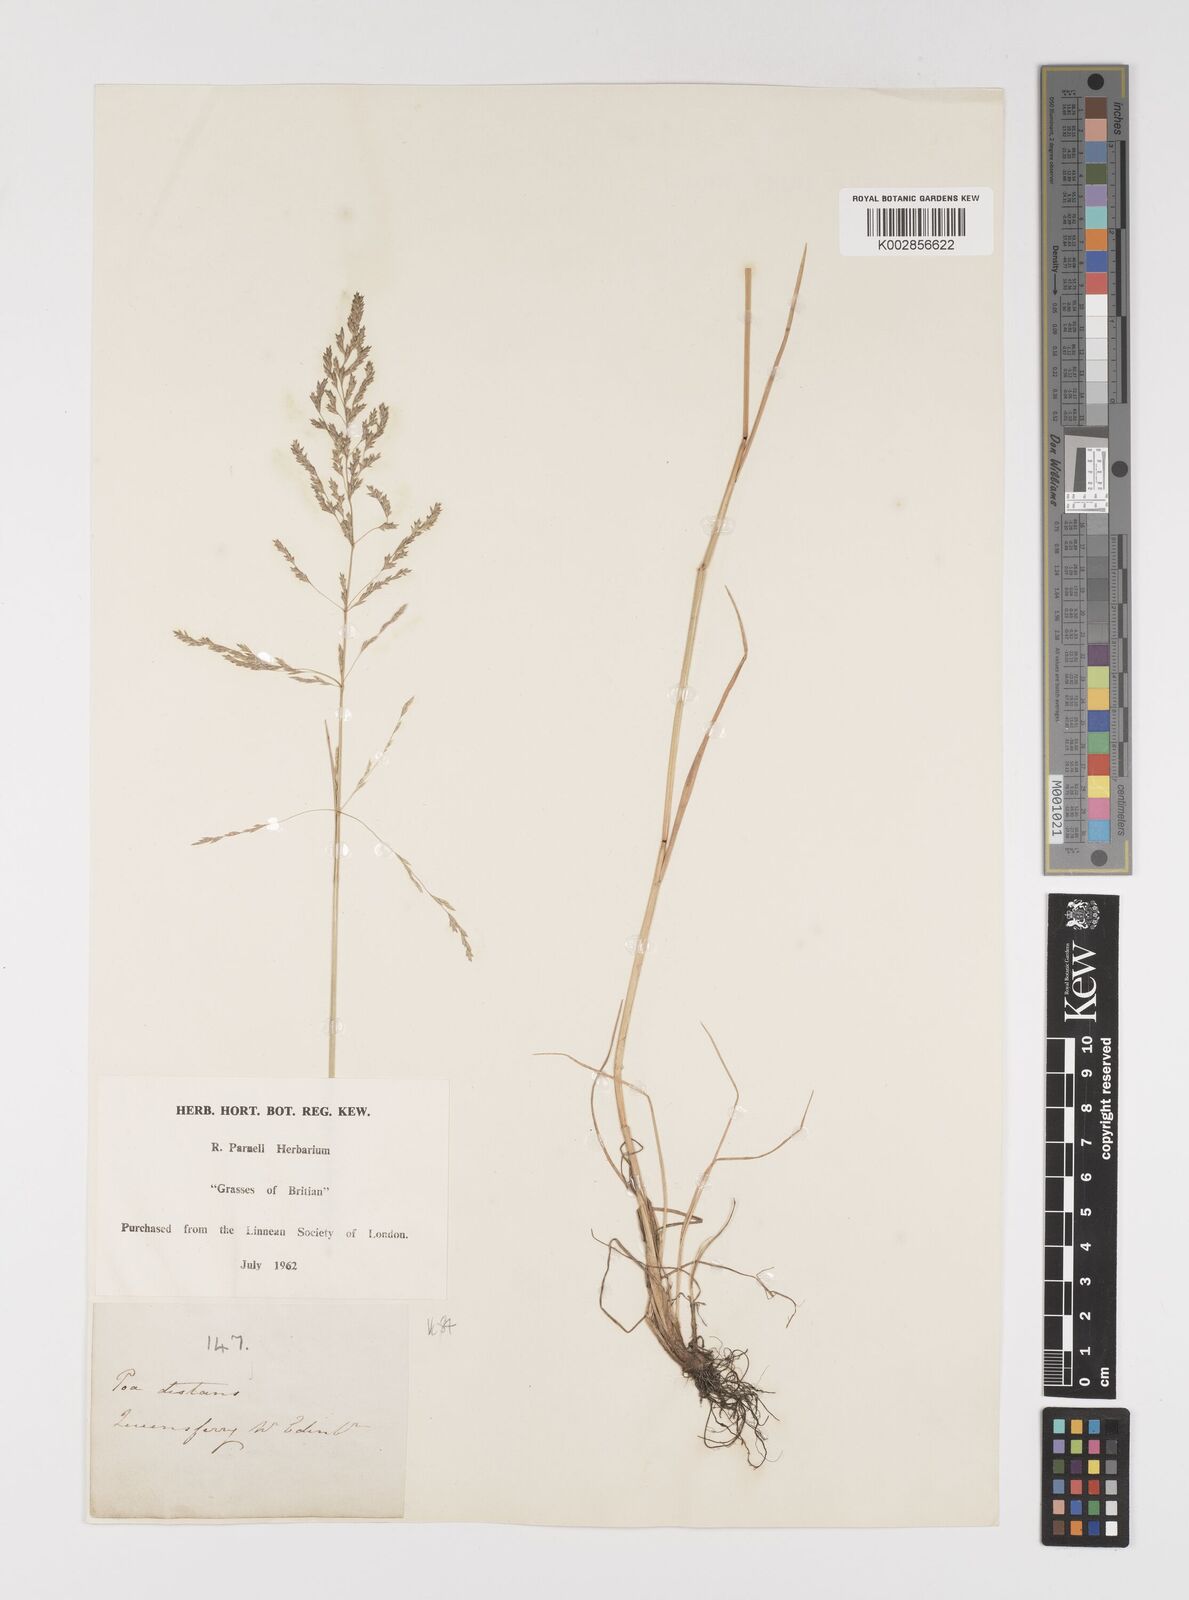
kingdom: Plantae
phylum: Tracheophyta
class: Liliopsida
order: Poales
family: Poaceae
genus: Puccinellia
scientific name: Puccinellia distans
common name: Weeping alkaligrass
